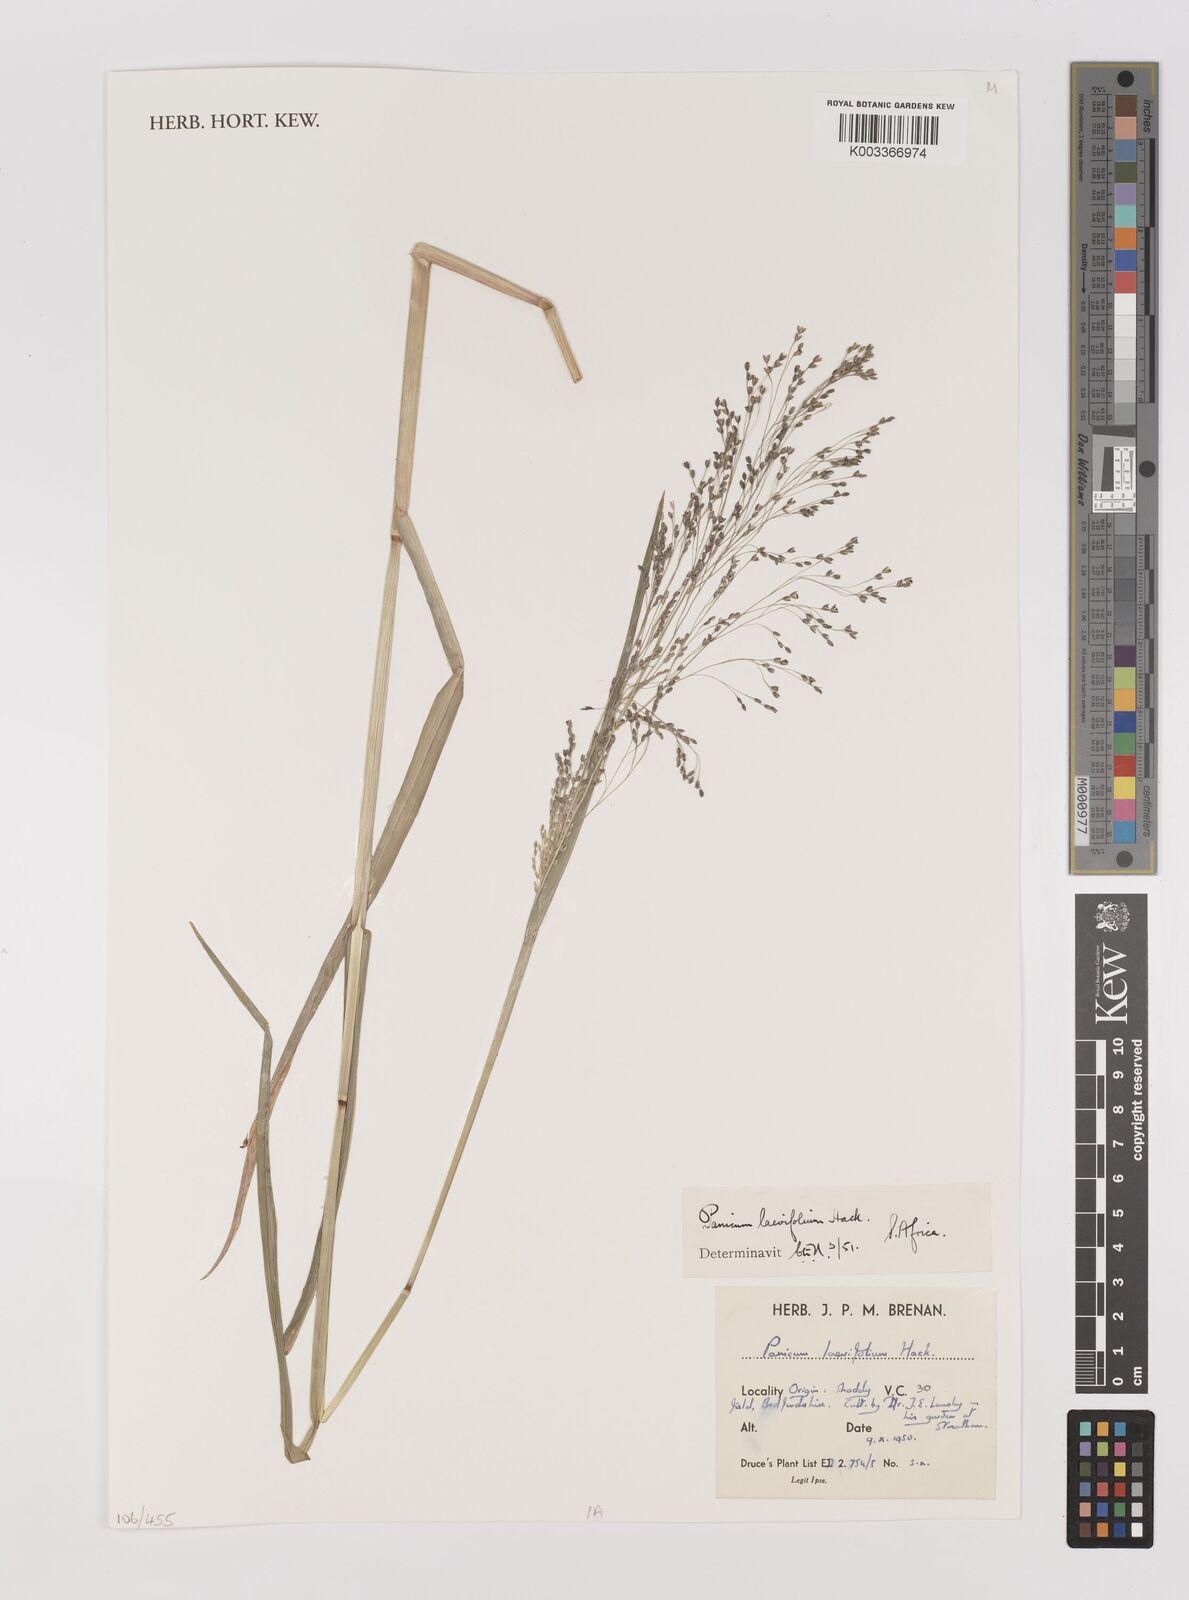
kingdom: Plantae
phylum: Tracheophyta
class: Liliopsida
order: Poales
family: Poaceae
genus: Panicum
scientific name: Panicum schinzii
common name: Sweet grass
